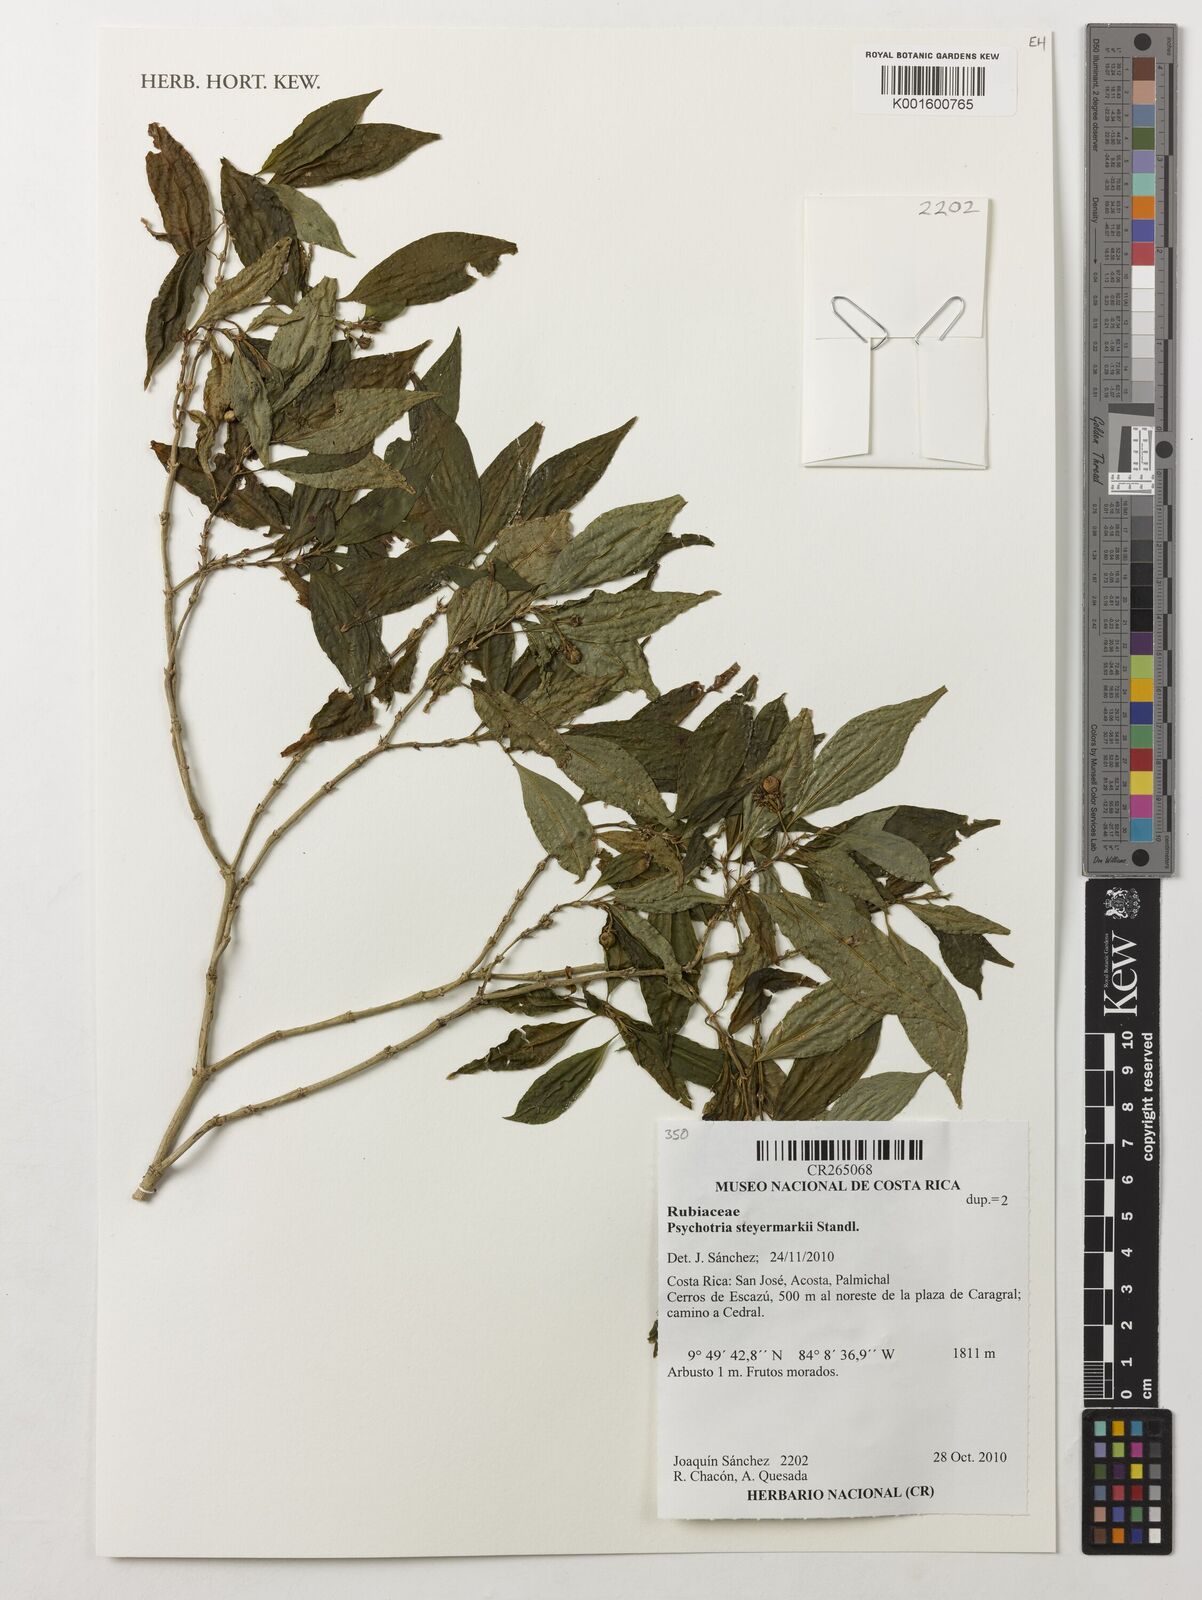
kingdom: Plantae
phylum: Tracheophyta
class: Magnoliopsida
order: Gentianales
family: Rubiaceae
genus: Palicourea
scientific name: Palicourea steyermarkiana
